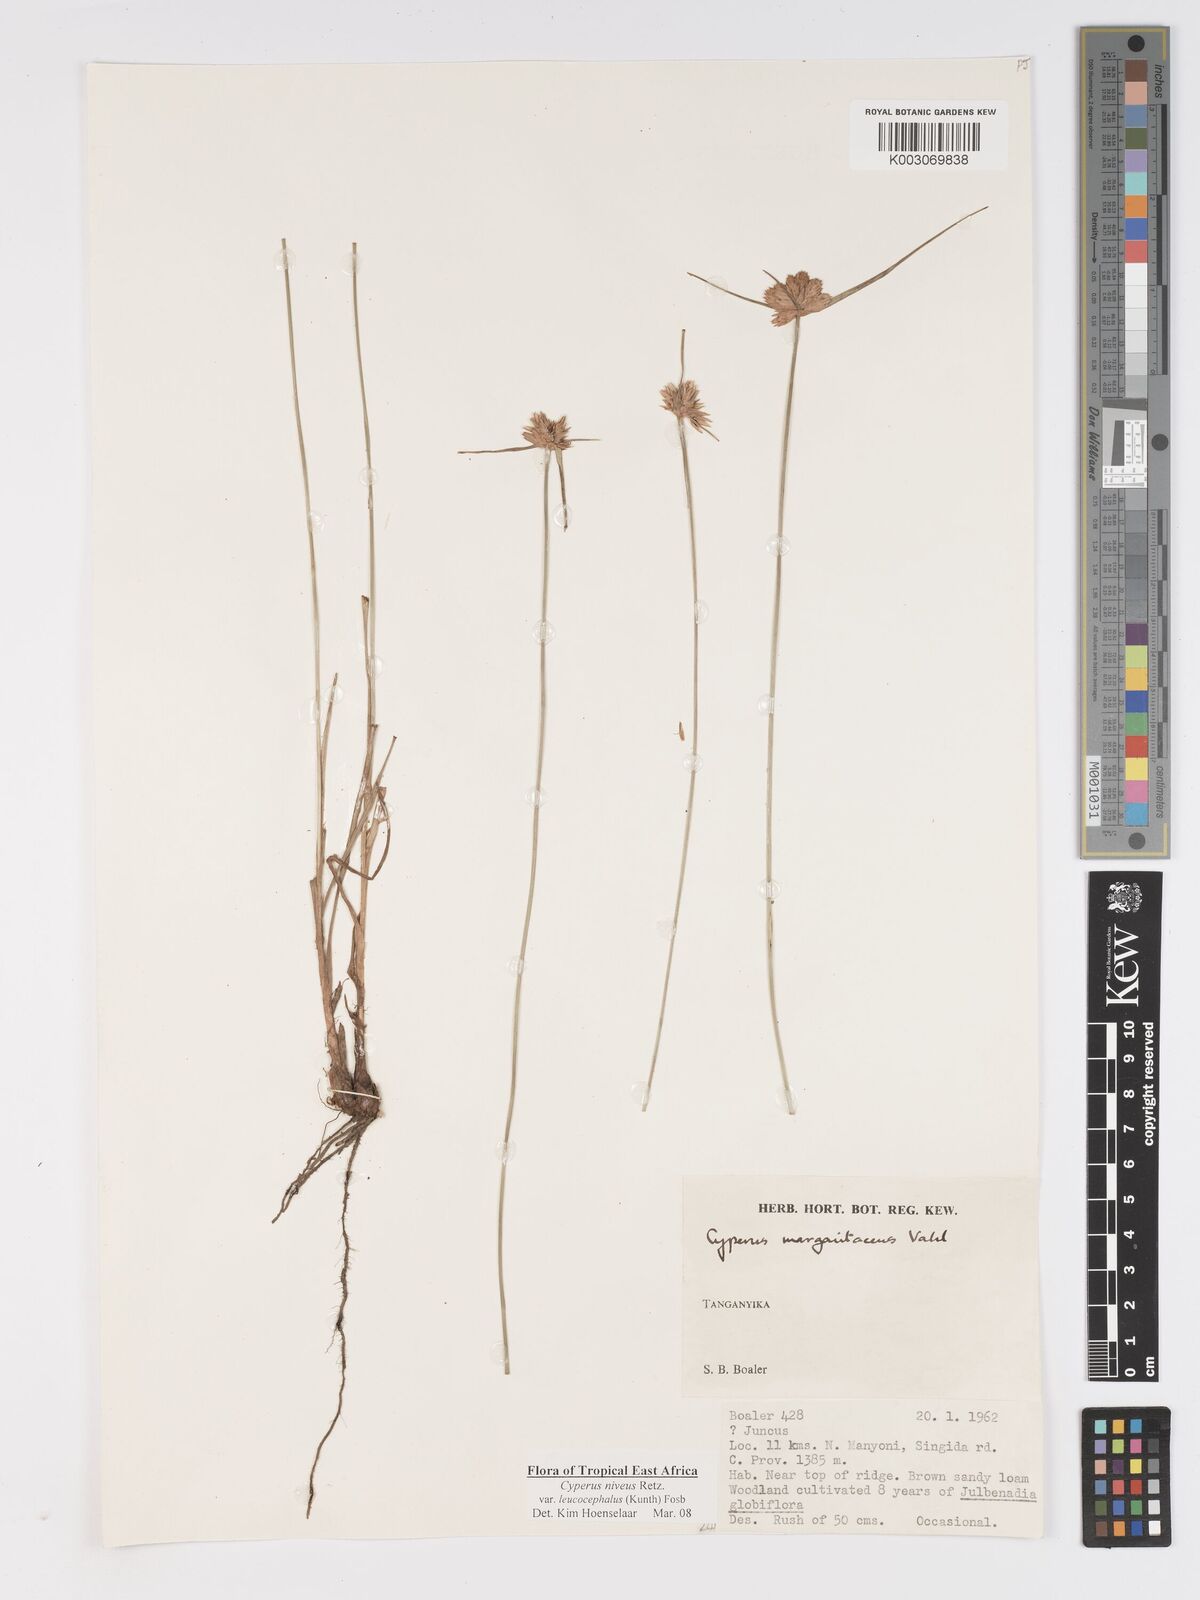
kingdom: Plantae
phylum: Tracheophyta
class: Liliopsida
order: Poales
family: Cyperaceae
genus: Cyperus
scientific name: Cyperus niveus
